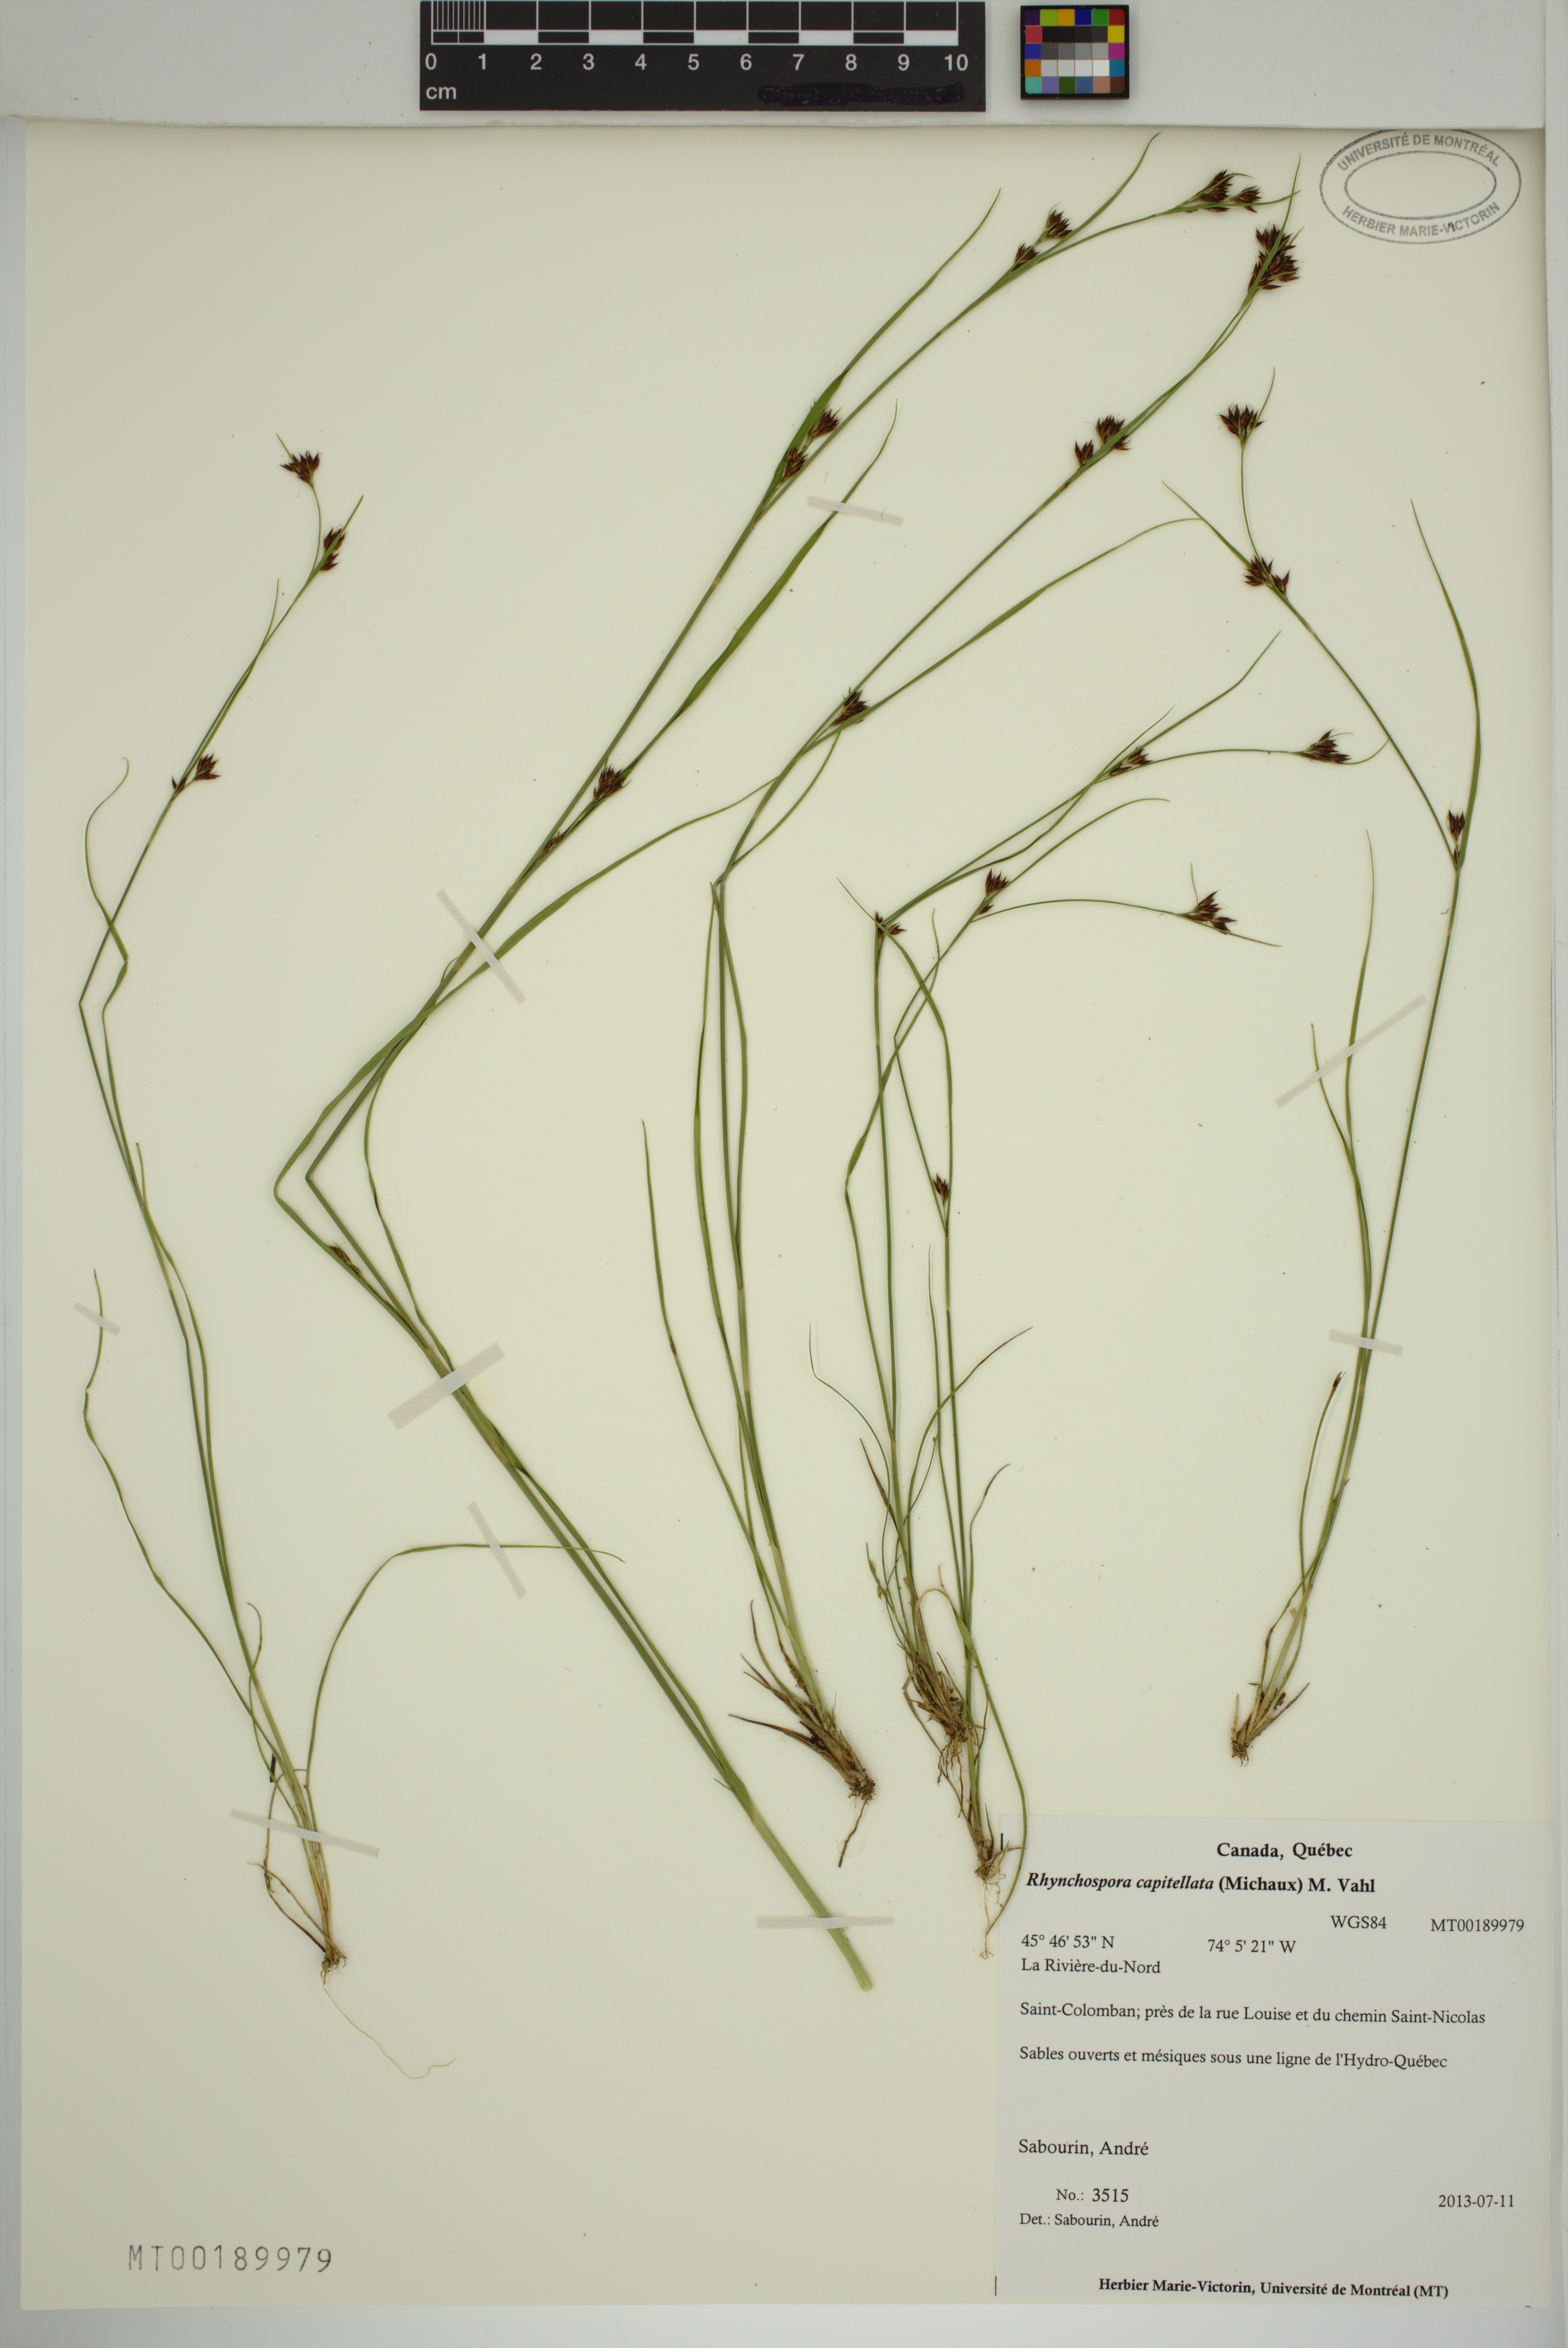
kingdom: Plantae
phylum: Tracheophyta
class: Liliopsida
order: Poales
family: Cyperaceae
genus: Rhynchospora
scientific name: Rhynchospora capitellata
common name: Brownish beaksedge
